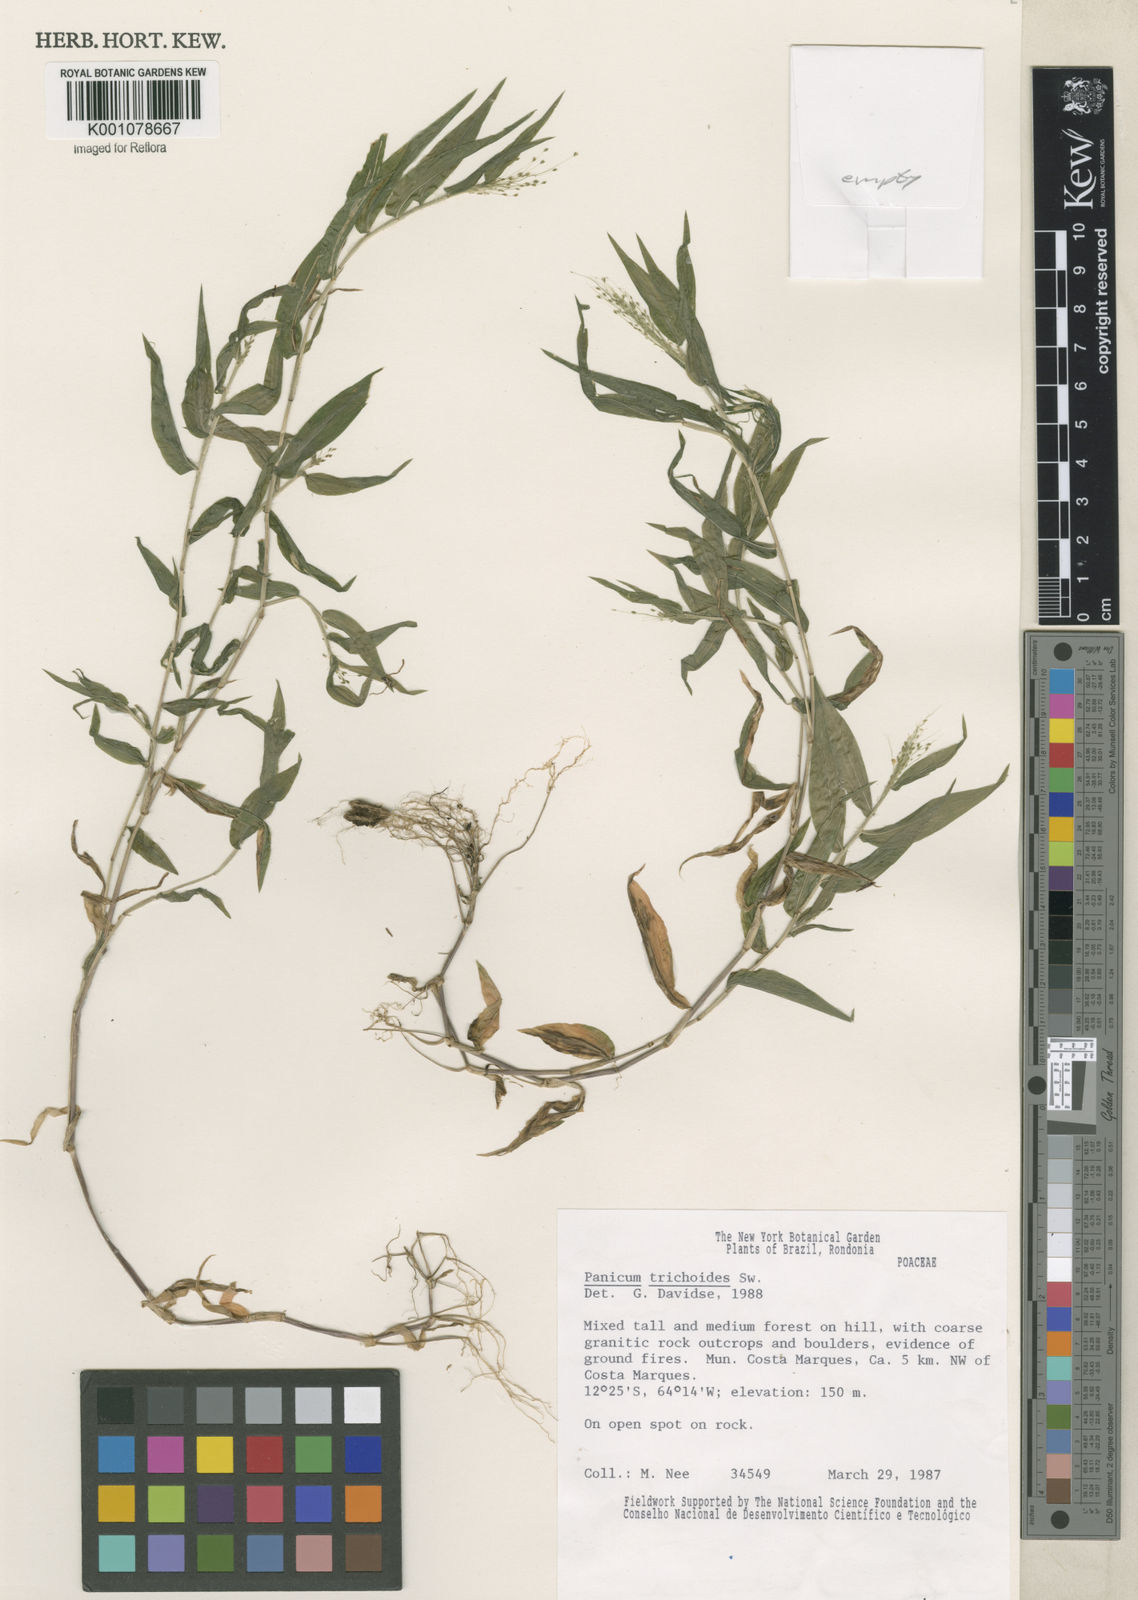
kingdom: Plantae
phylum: Tracheophyta
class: Liliopsida
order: Poales
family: Poaceae
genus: Panicum
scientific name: Panicum trichoides
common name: Tickle grass
